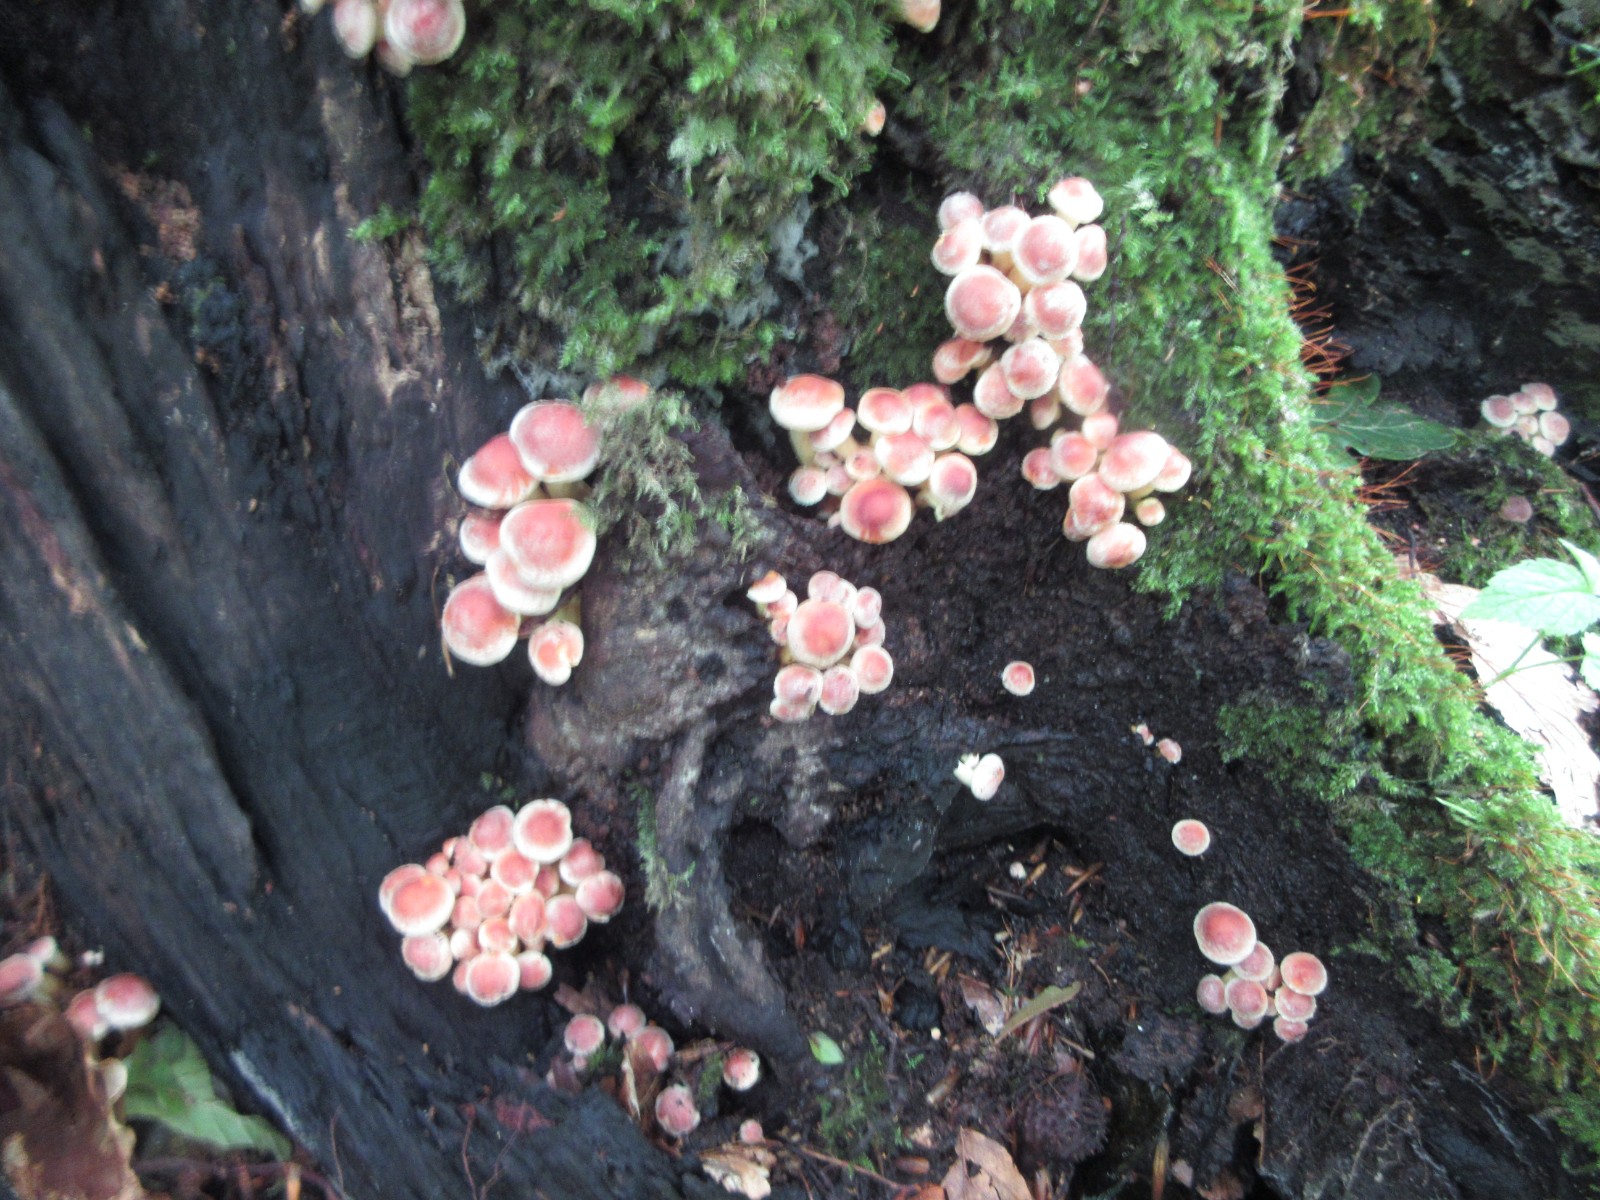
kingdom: Fungi
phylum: Basidiomycota
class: Agaricomycetes
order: Agaricales
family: Strophariaceae
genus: Hypholoma
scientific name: Hypholoma fasciculare
